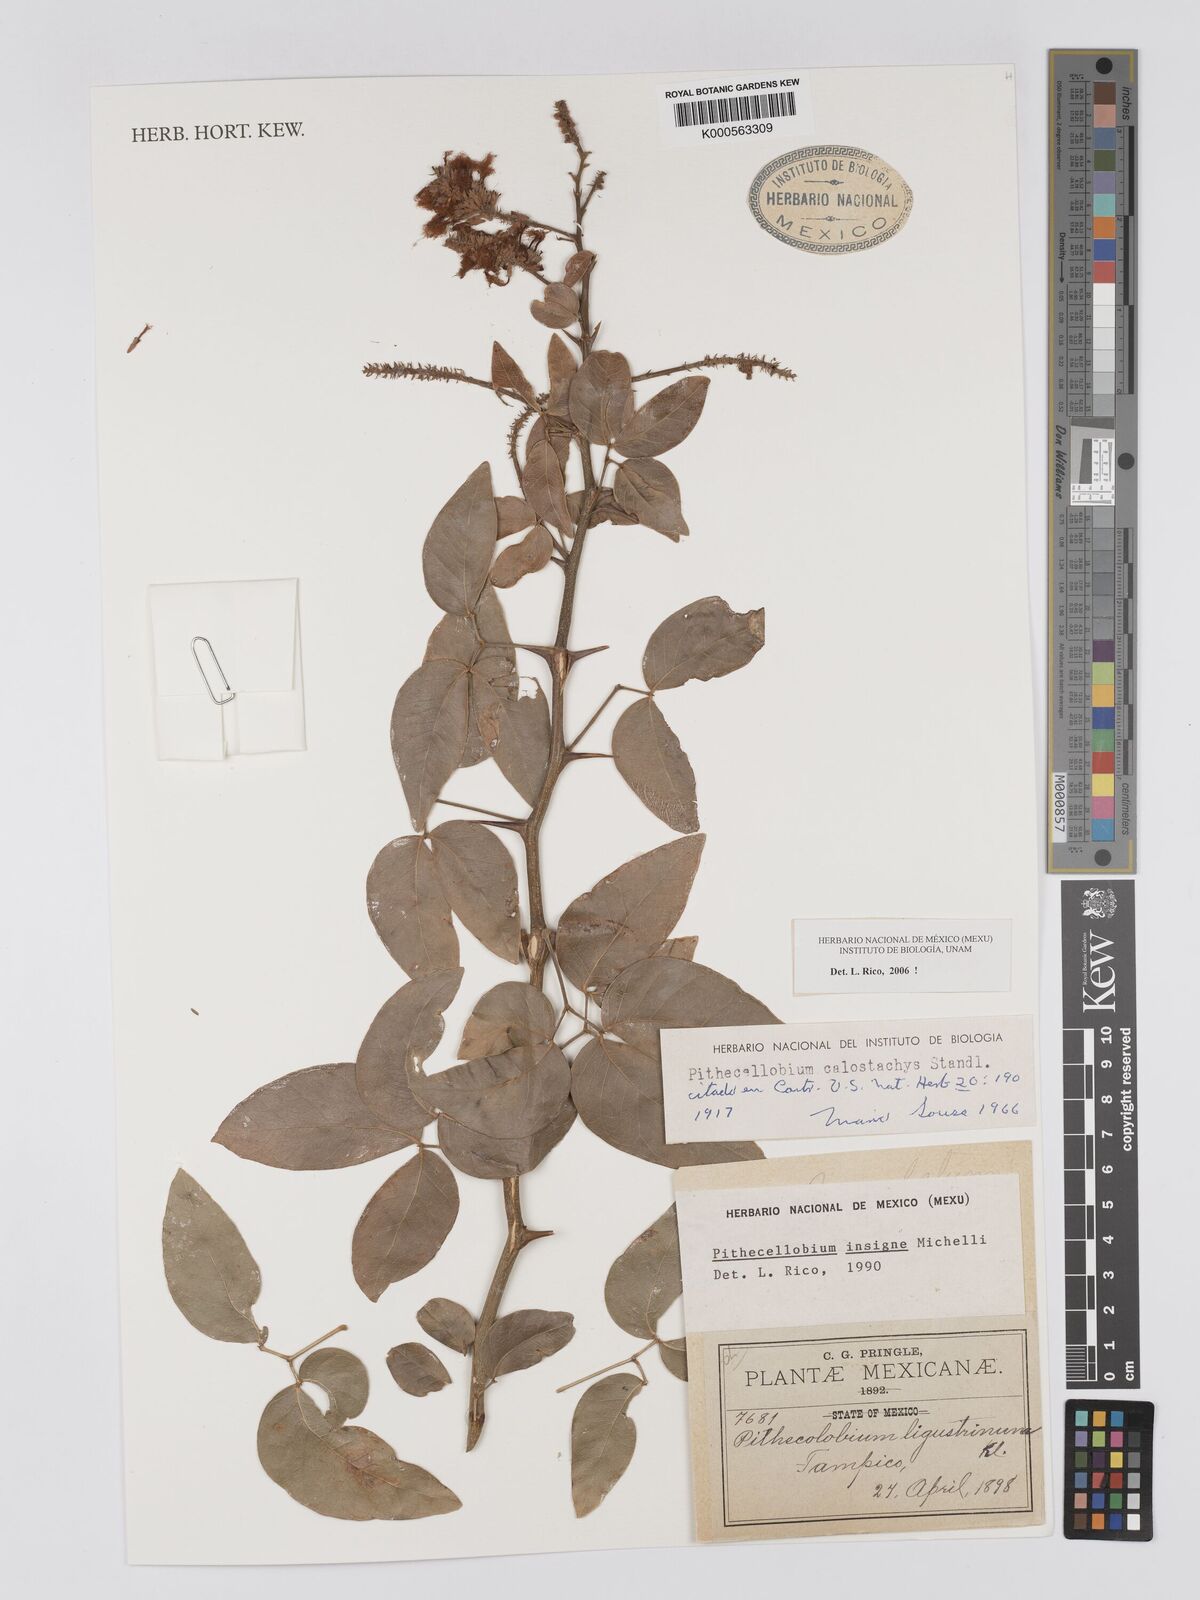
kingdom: Plantae
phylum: Tracheophyta
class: Magnoliopsida
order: Fabales
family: Fabaceae
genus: Pithecellobium
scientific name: Pithecellobium lanceolatum
